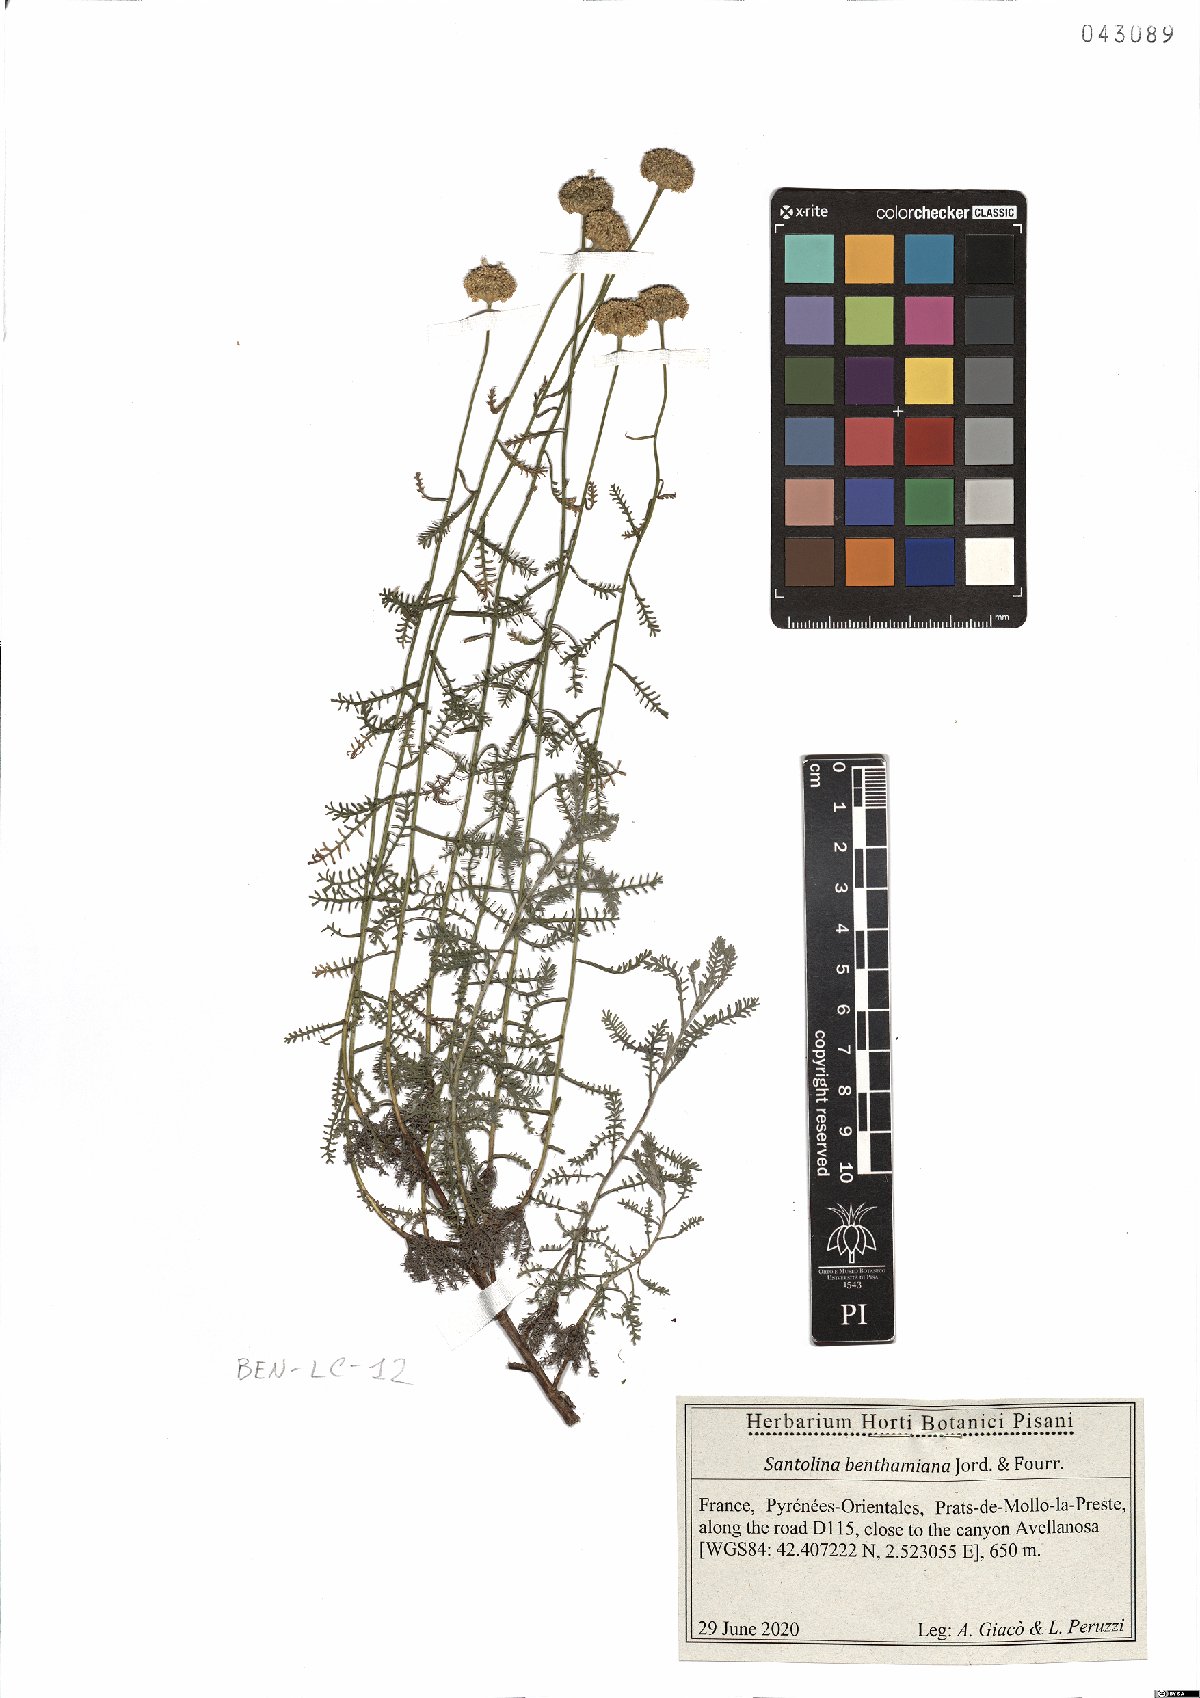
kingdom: Plantae
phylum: Tracheophyta
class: Magnoliopsida
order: Asterales
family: Asteraceae
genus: Santolina
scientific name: Santolina benthamiana
